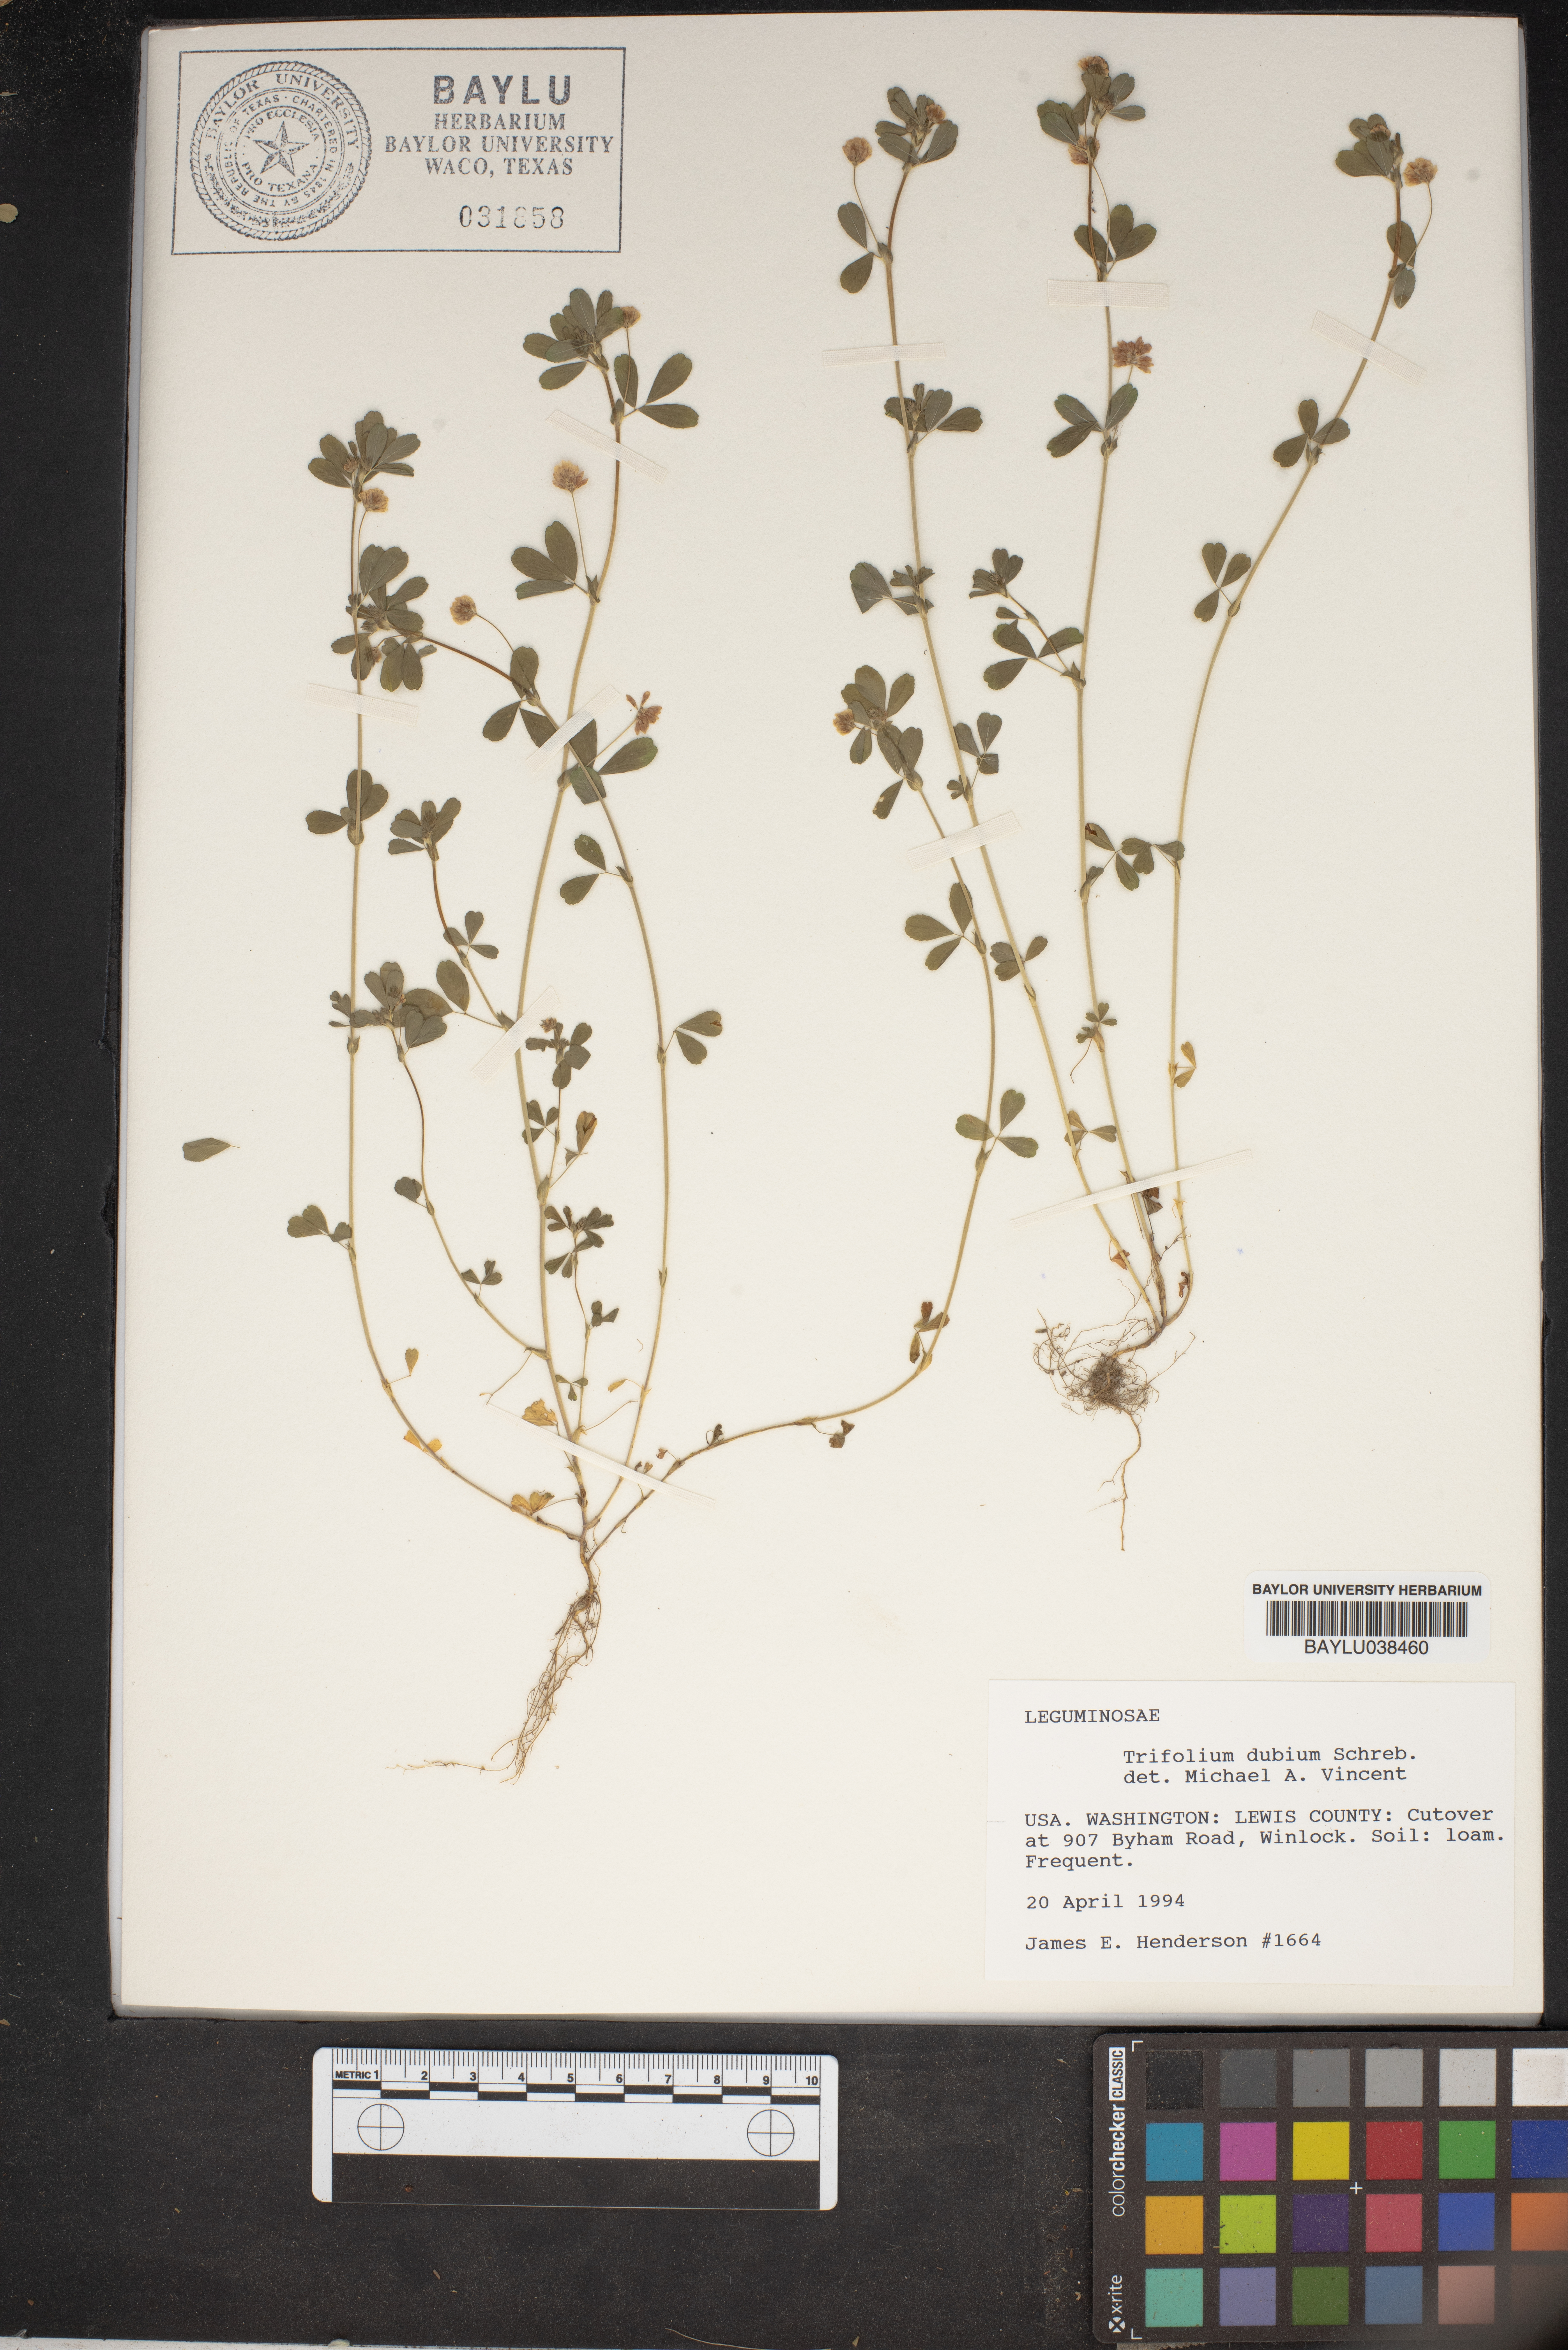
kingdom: Plantae
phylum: Tracheophyta
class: Magnoliopsida
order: Fabales
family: Fabaceae
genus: Trifolium
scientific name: Trifolium dubium
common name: Suckling clover
